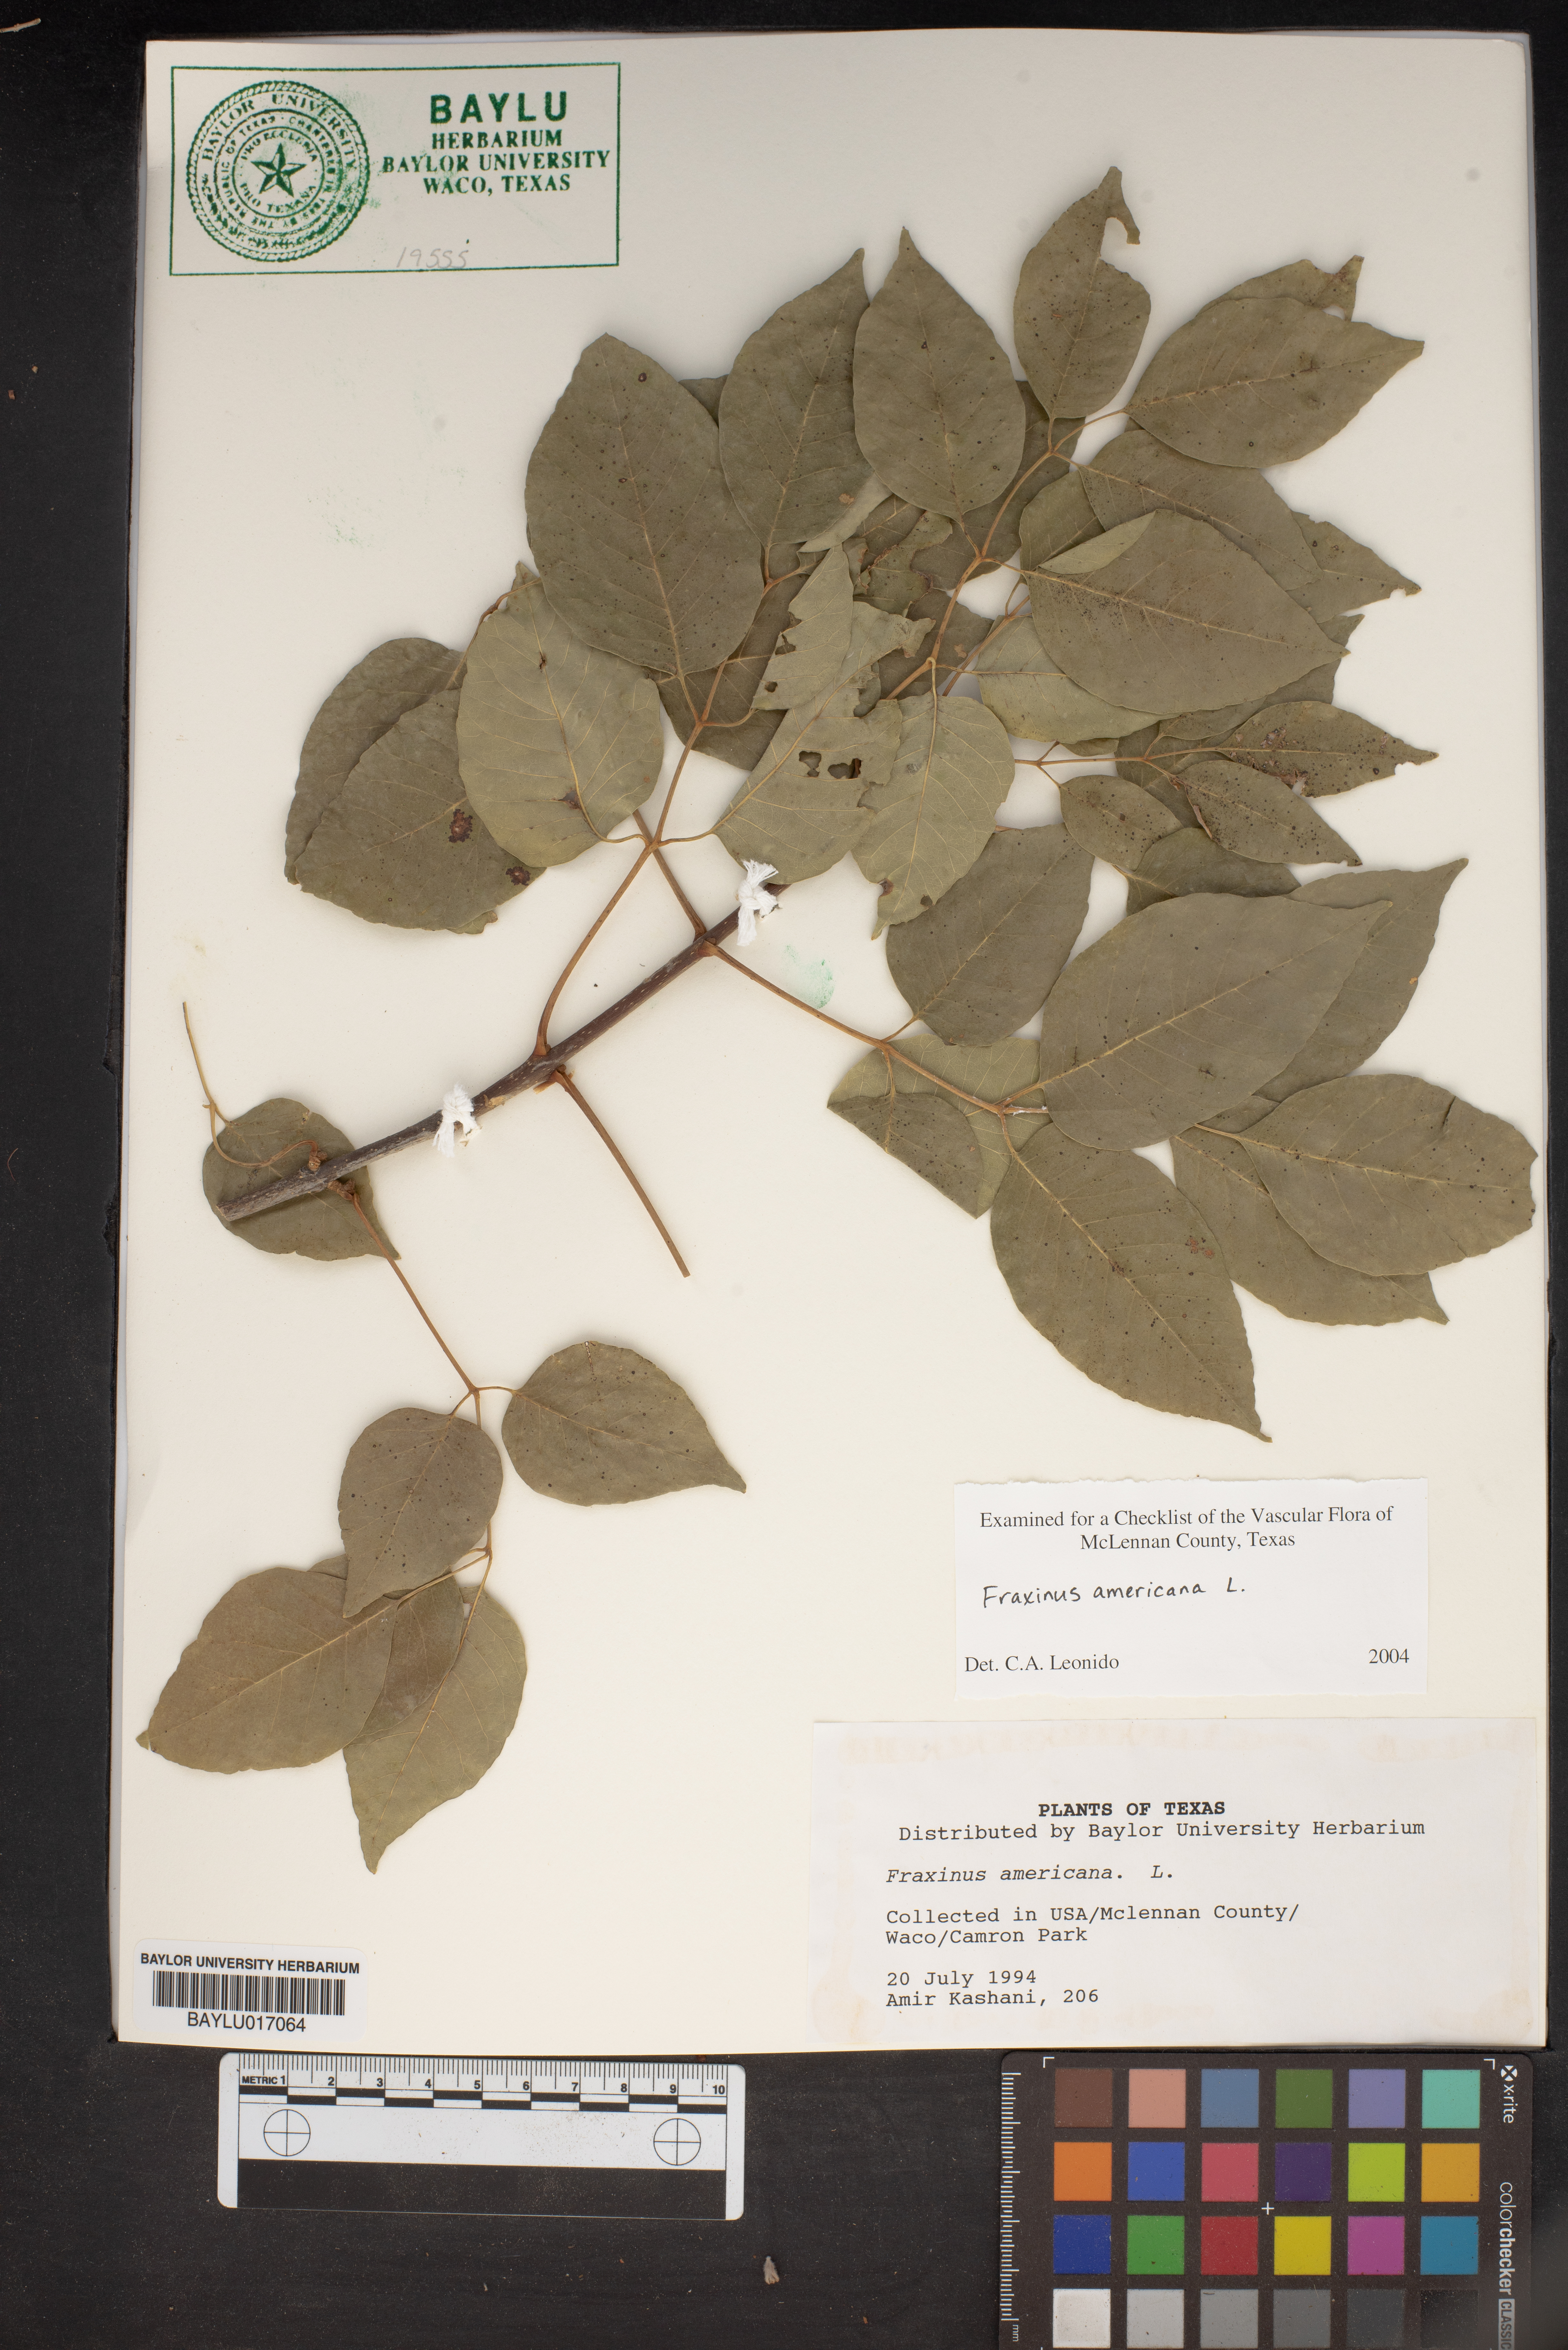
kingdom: Plantae
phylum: Tracheophyta
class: Magnoliopsida
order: Lamiales
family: Oleaceae
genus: Fraxinus
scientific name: Fraxinus americana
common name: White ash
